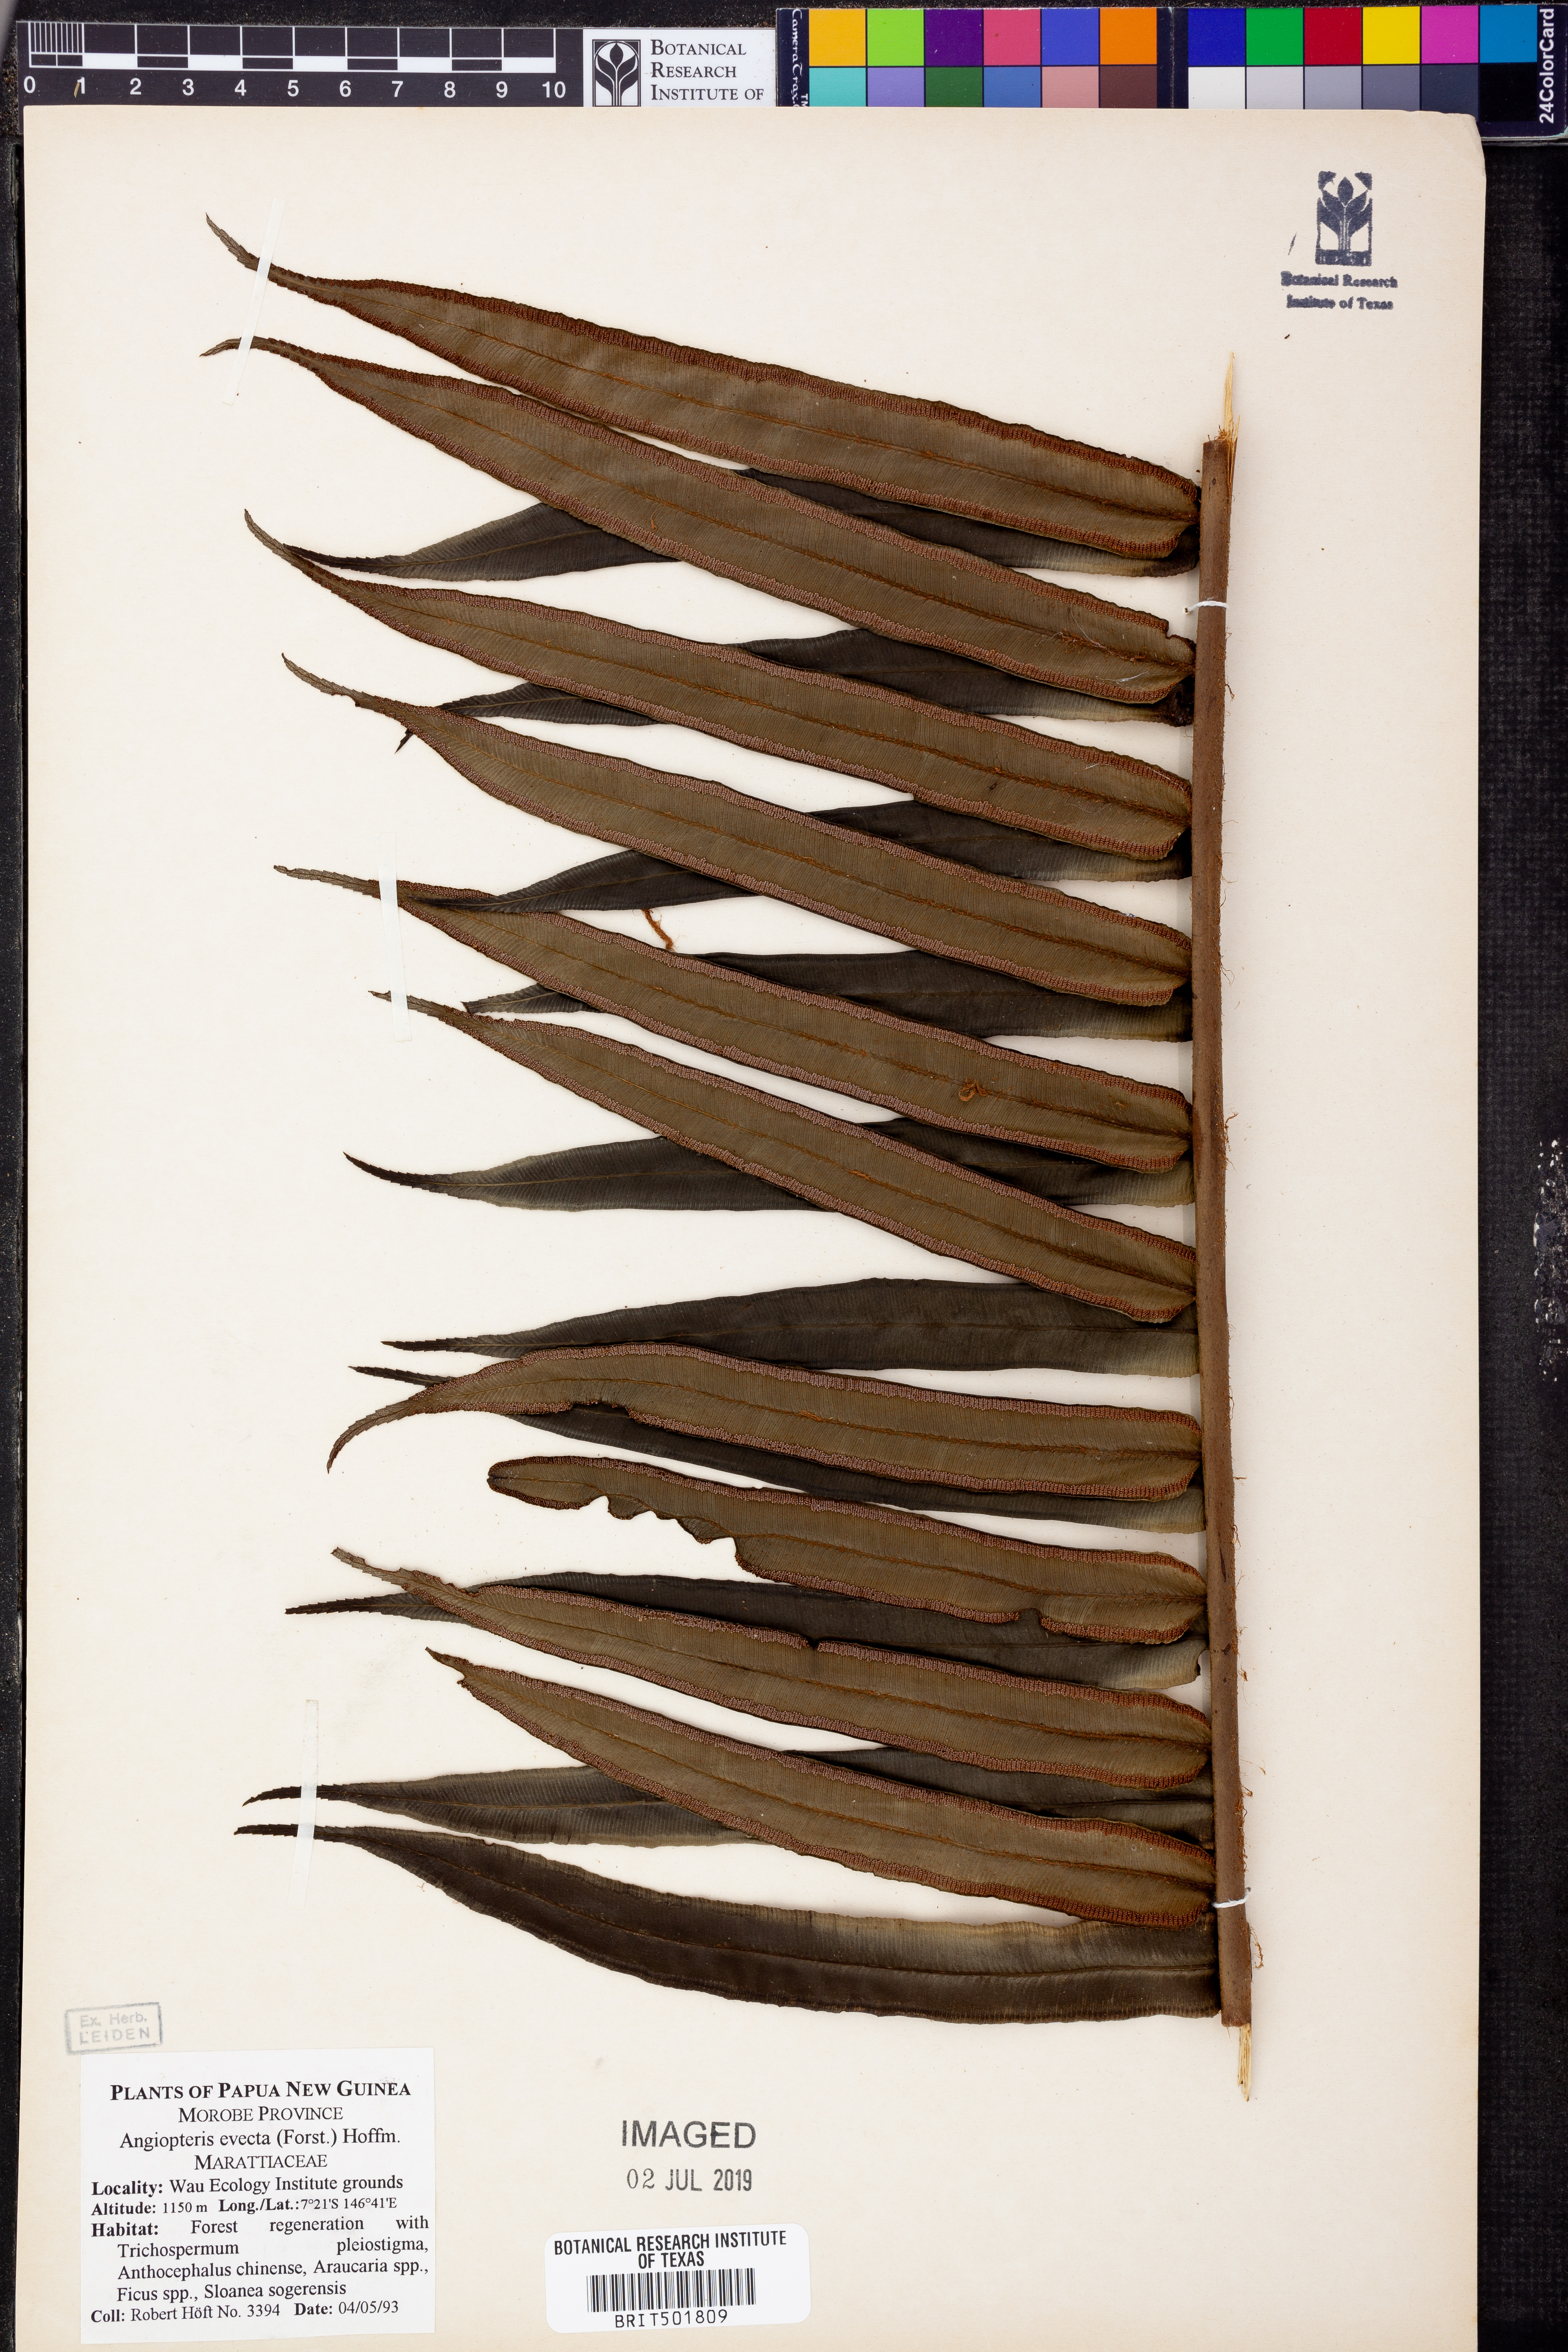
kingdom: Plantae
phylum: Tracheophyta
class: Polypodiopsida
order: Marattiales
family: Marattiaceae
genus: Angiopteris
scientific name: Angiopteris evecta
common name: Mule's-foot fern
